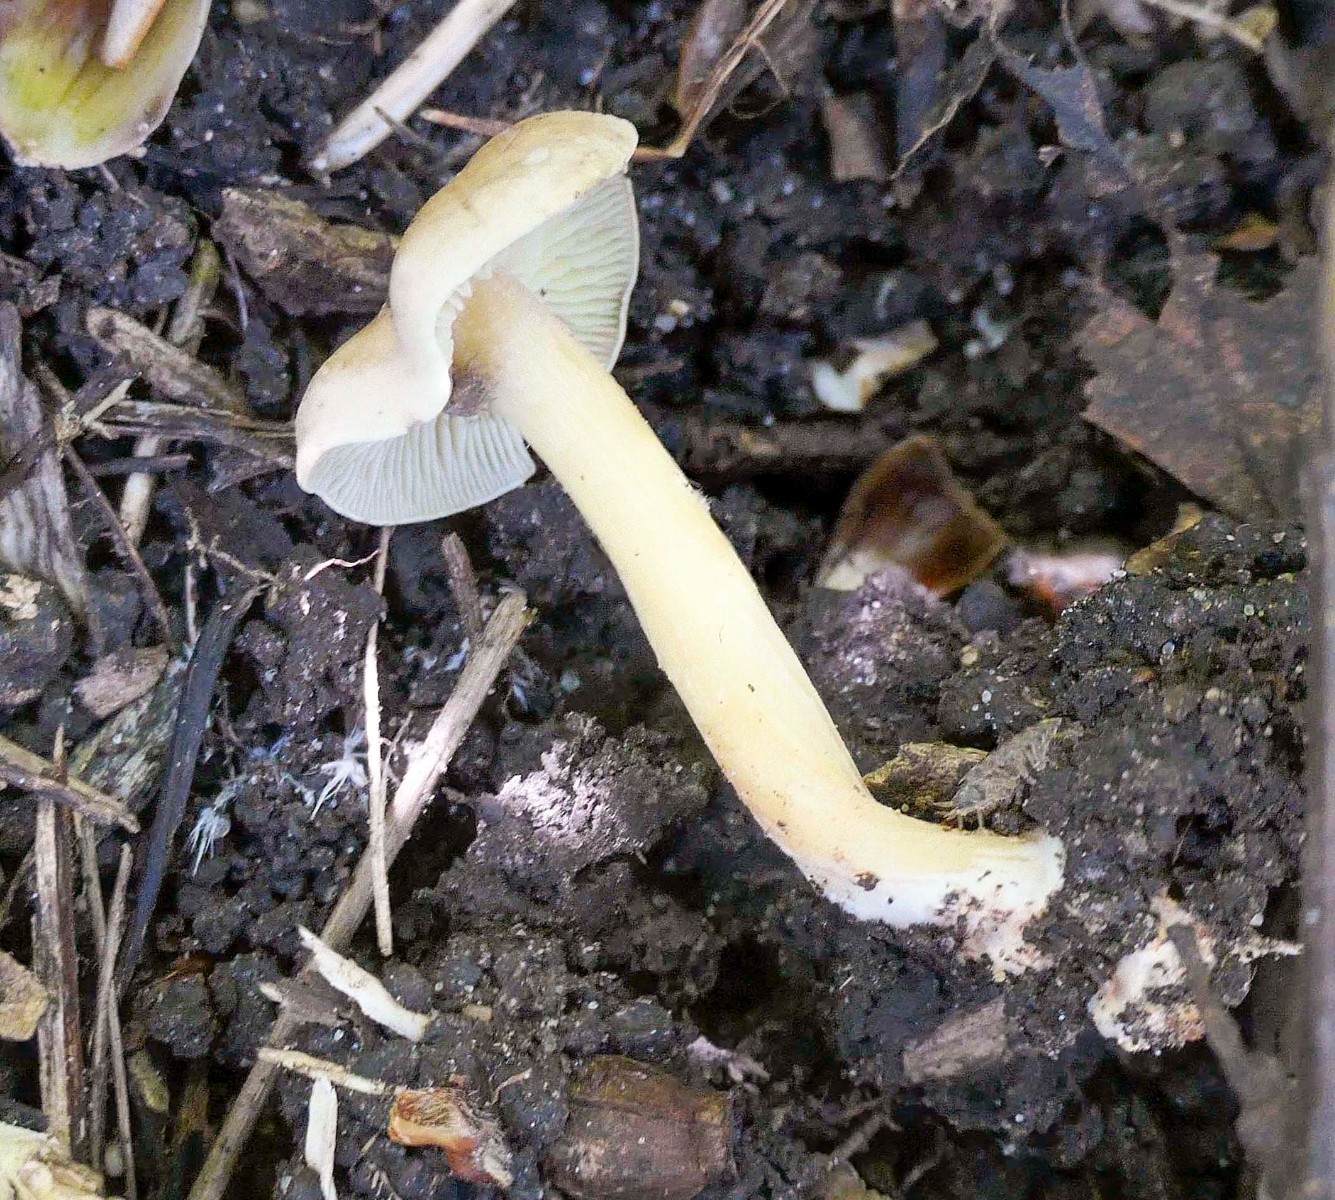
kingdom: Fungi
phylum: Basidiomycota
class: Agaricomycetes
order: Agaricales
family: Omphalotaceae
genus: Gymnopus
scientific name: Gymnopus aquosus
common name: bleg fladhat
